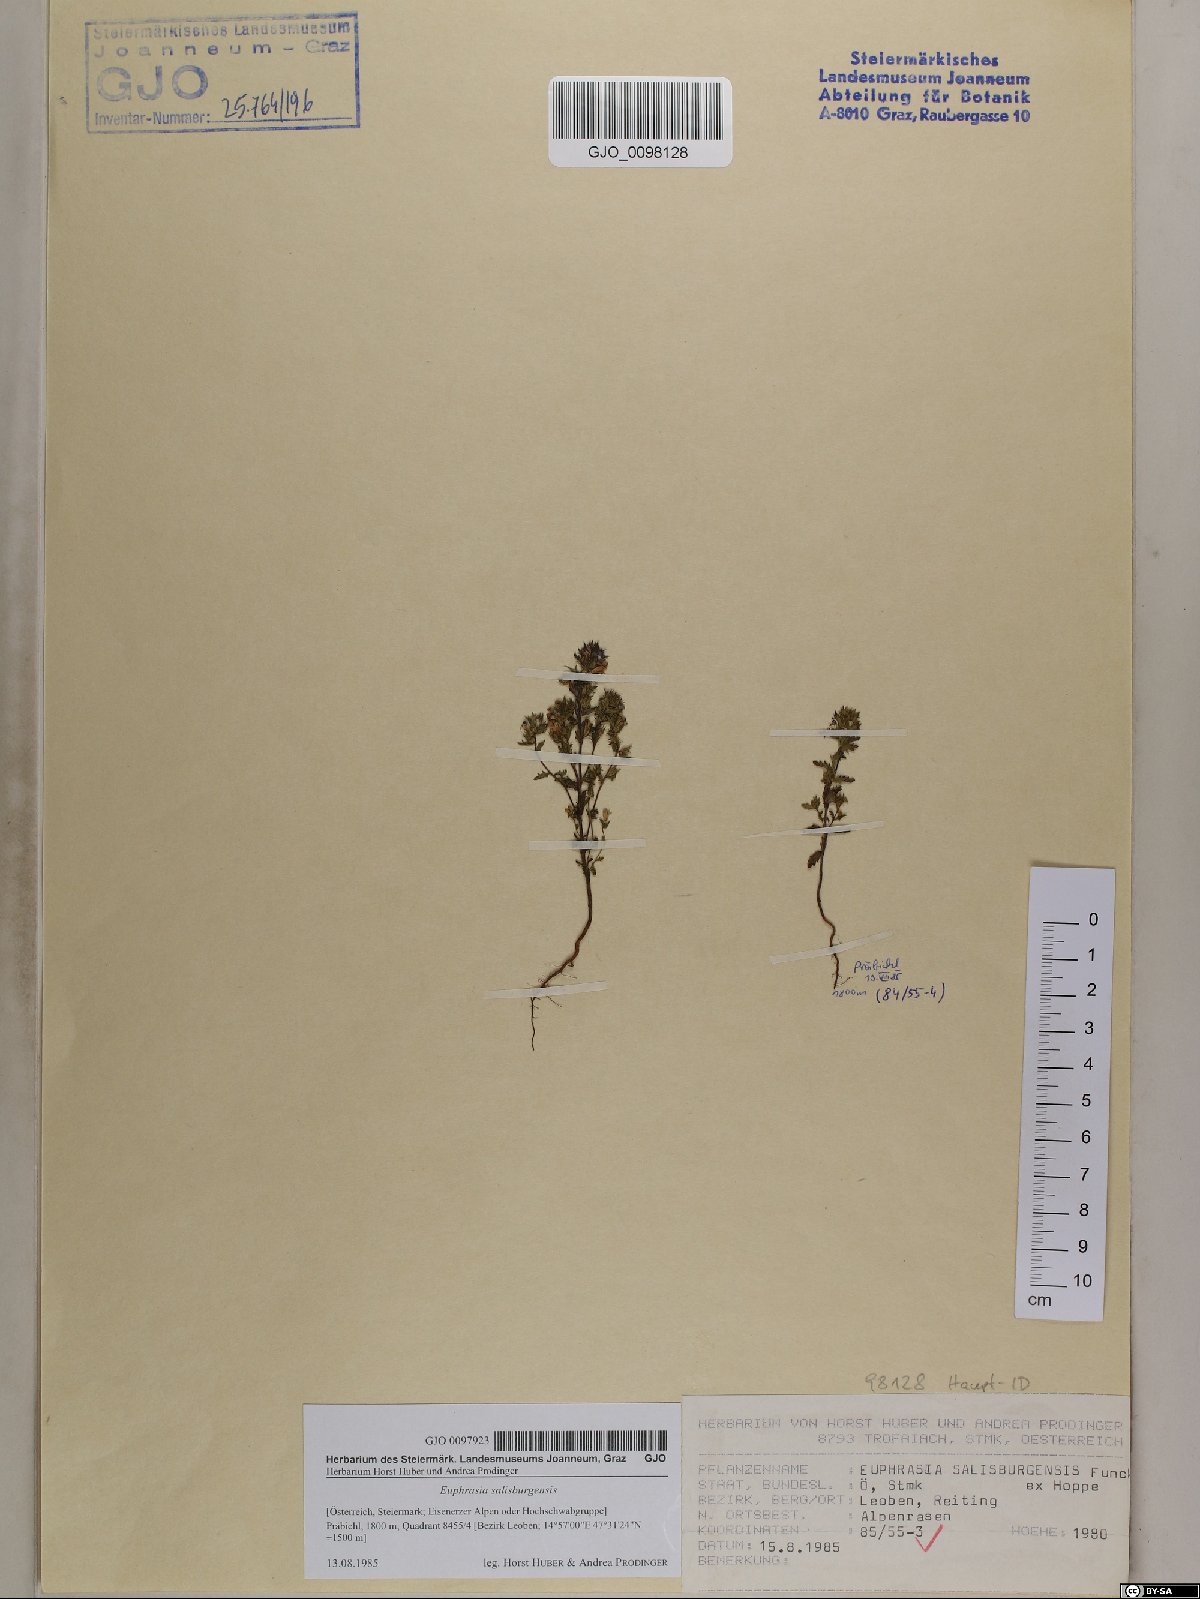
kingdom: Plantae
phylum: Tracheophyta
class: Magnoliopsida
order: Lamiales
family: Orobanchaceae
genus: Euphrasia
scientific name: Euphrasia salisburgensis
